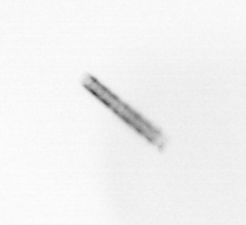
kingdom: Chromista
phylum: Ochrophyta
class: Bacillariophyceae
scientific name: Bacillariophyceae
